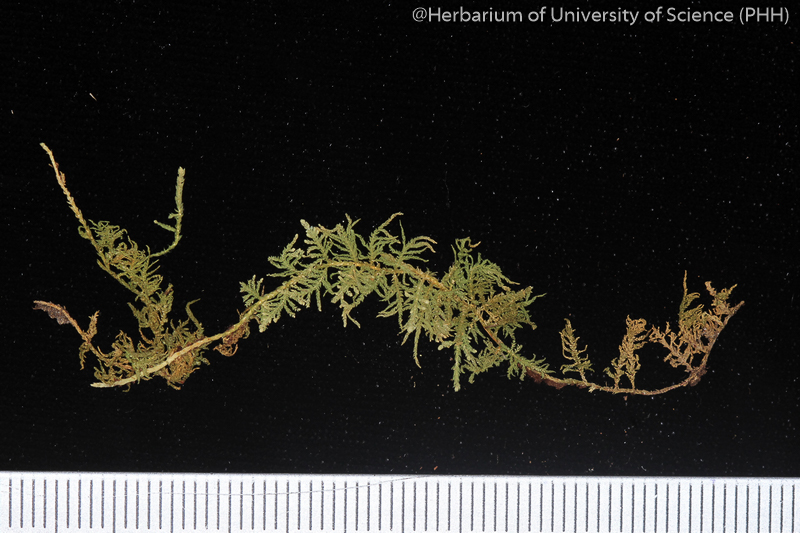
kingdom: Plantae
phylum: Bryophyta
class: Bryopsida
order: Hypnales
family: Thuidiaceae
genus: Thuidium
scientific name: Thuidium pristocalyx
